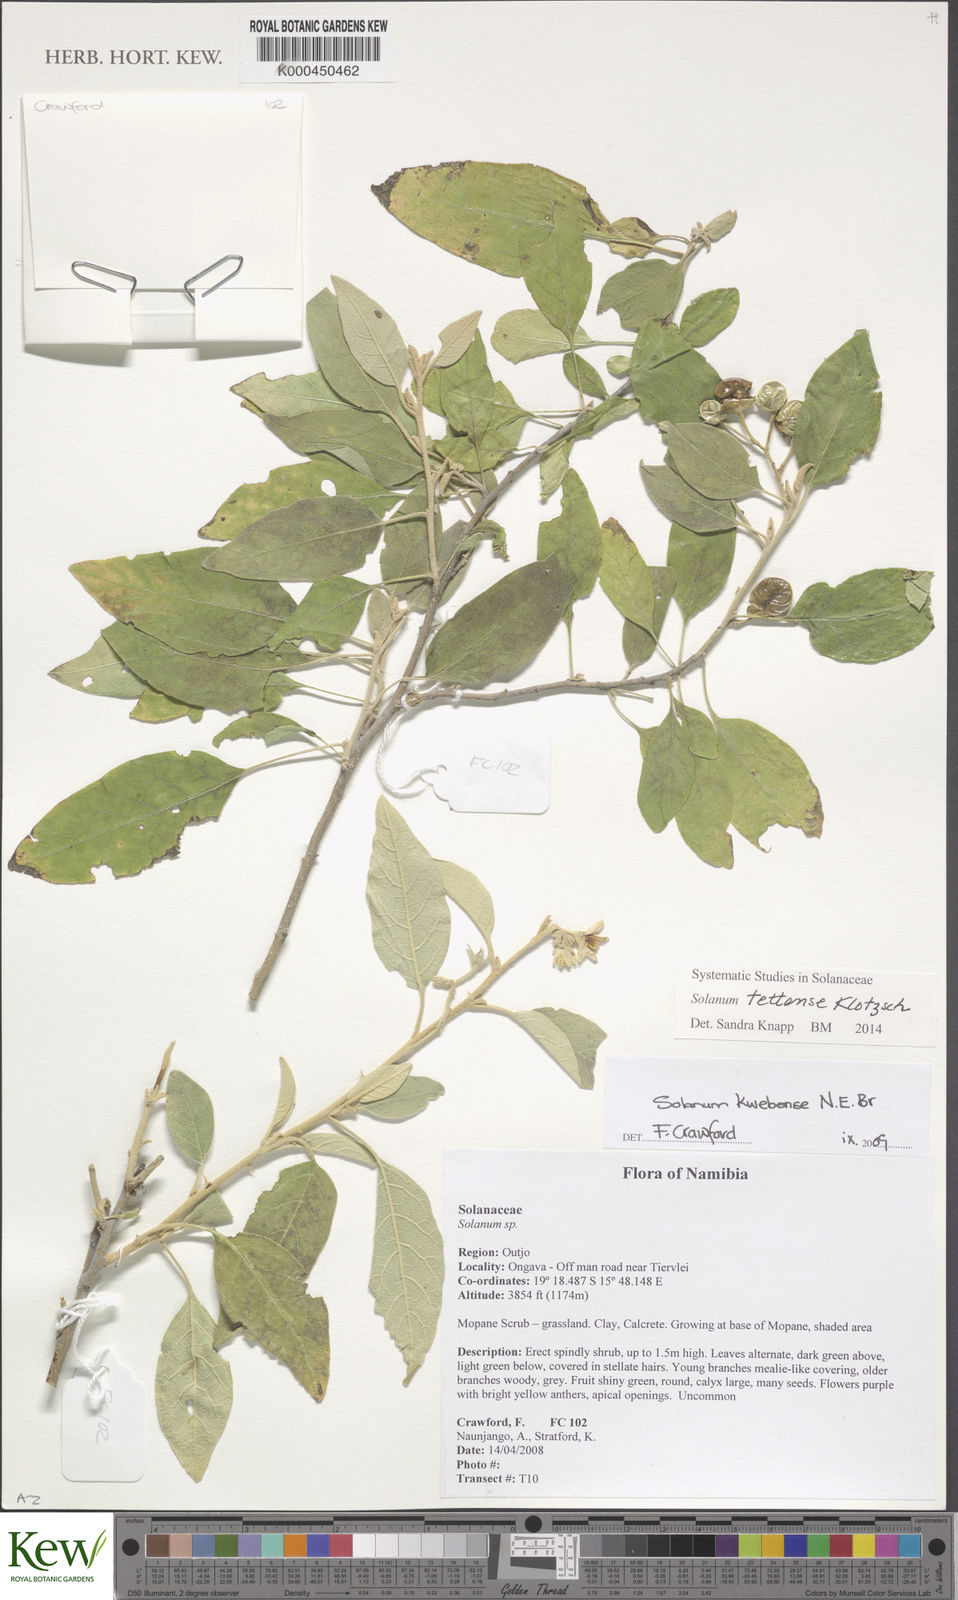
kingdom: Plantae
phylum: Tracheophyta
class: Magnoliopsida
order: Solanales
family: Solanaceae
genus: Solanum
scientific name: Solanum
